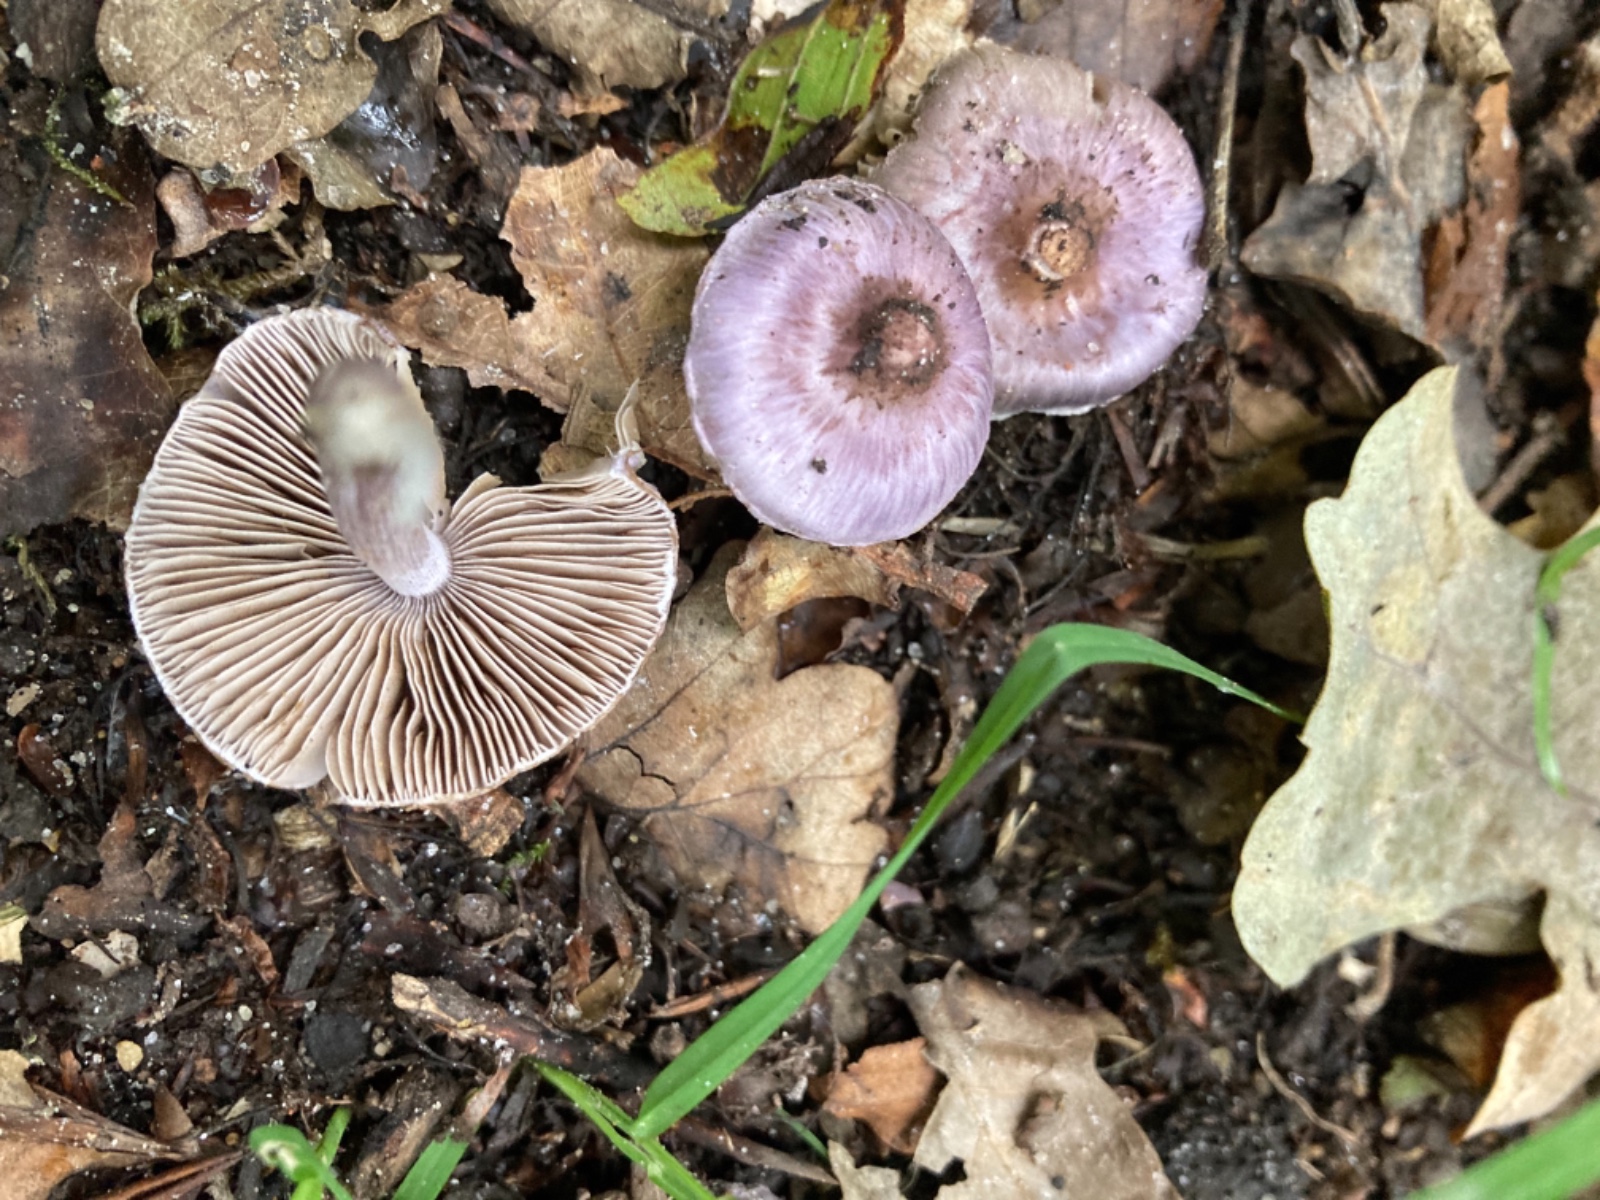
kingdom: Fungi
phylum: Basidiomycota
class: Agaricomycetes
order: Agaricales
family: Inocybaceae
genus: Inocybe
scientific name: Inocybe ionolepis
